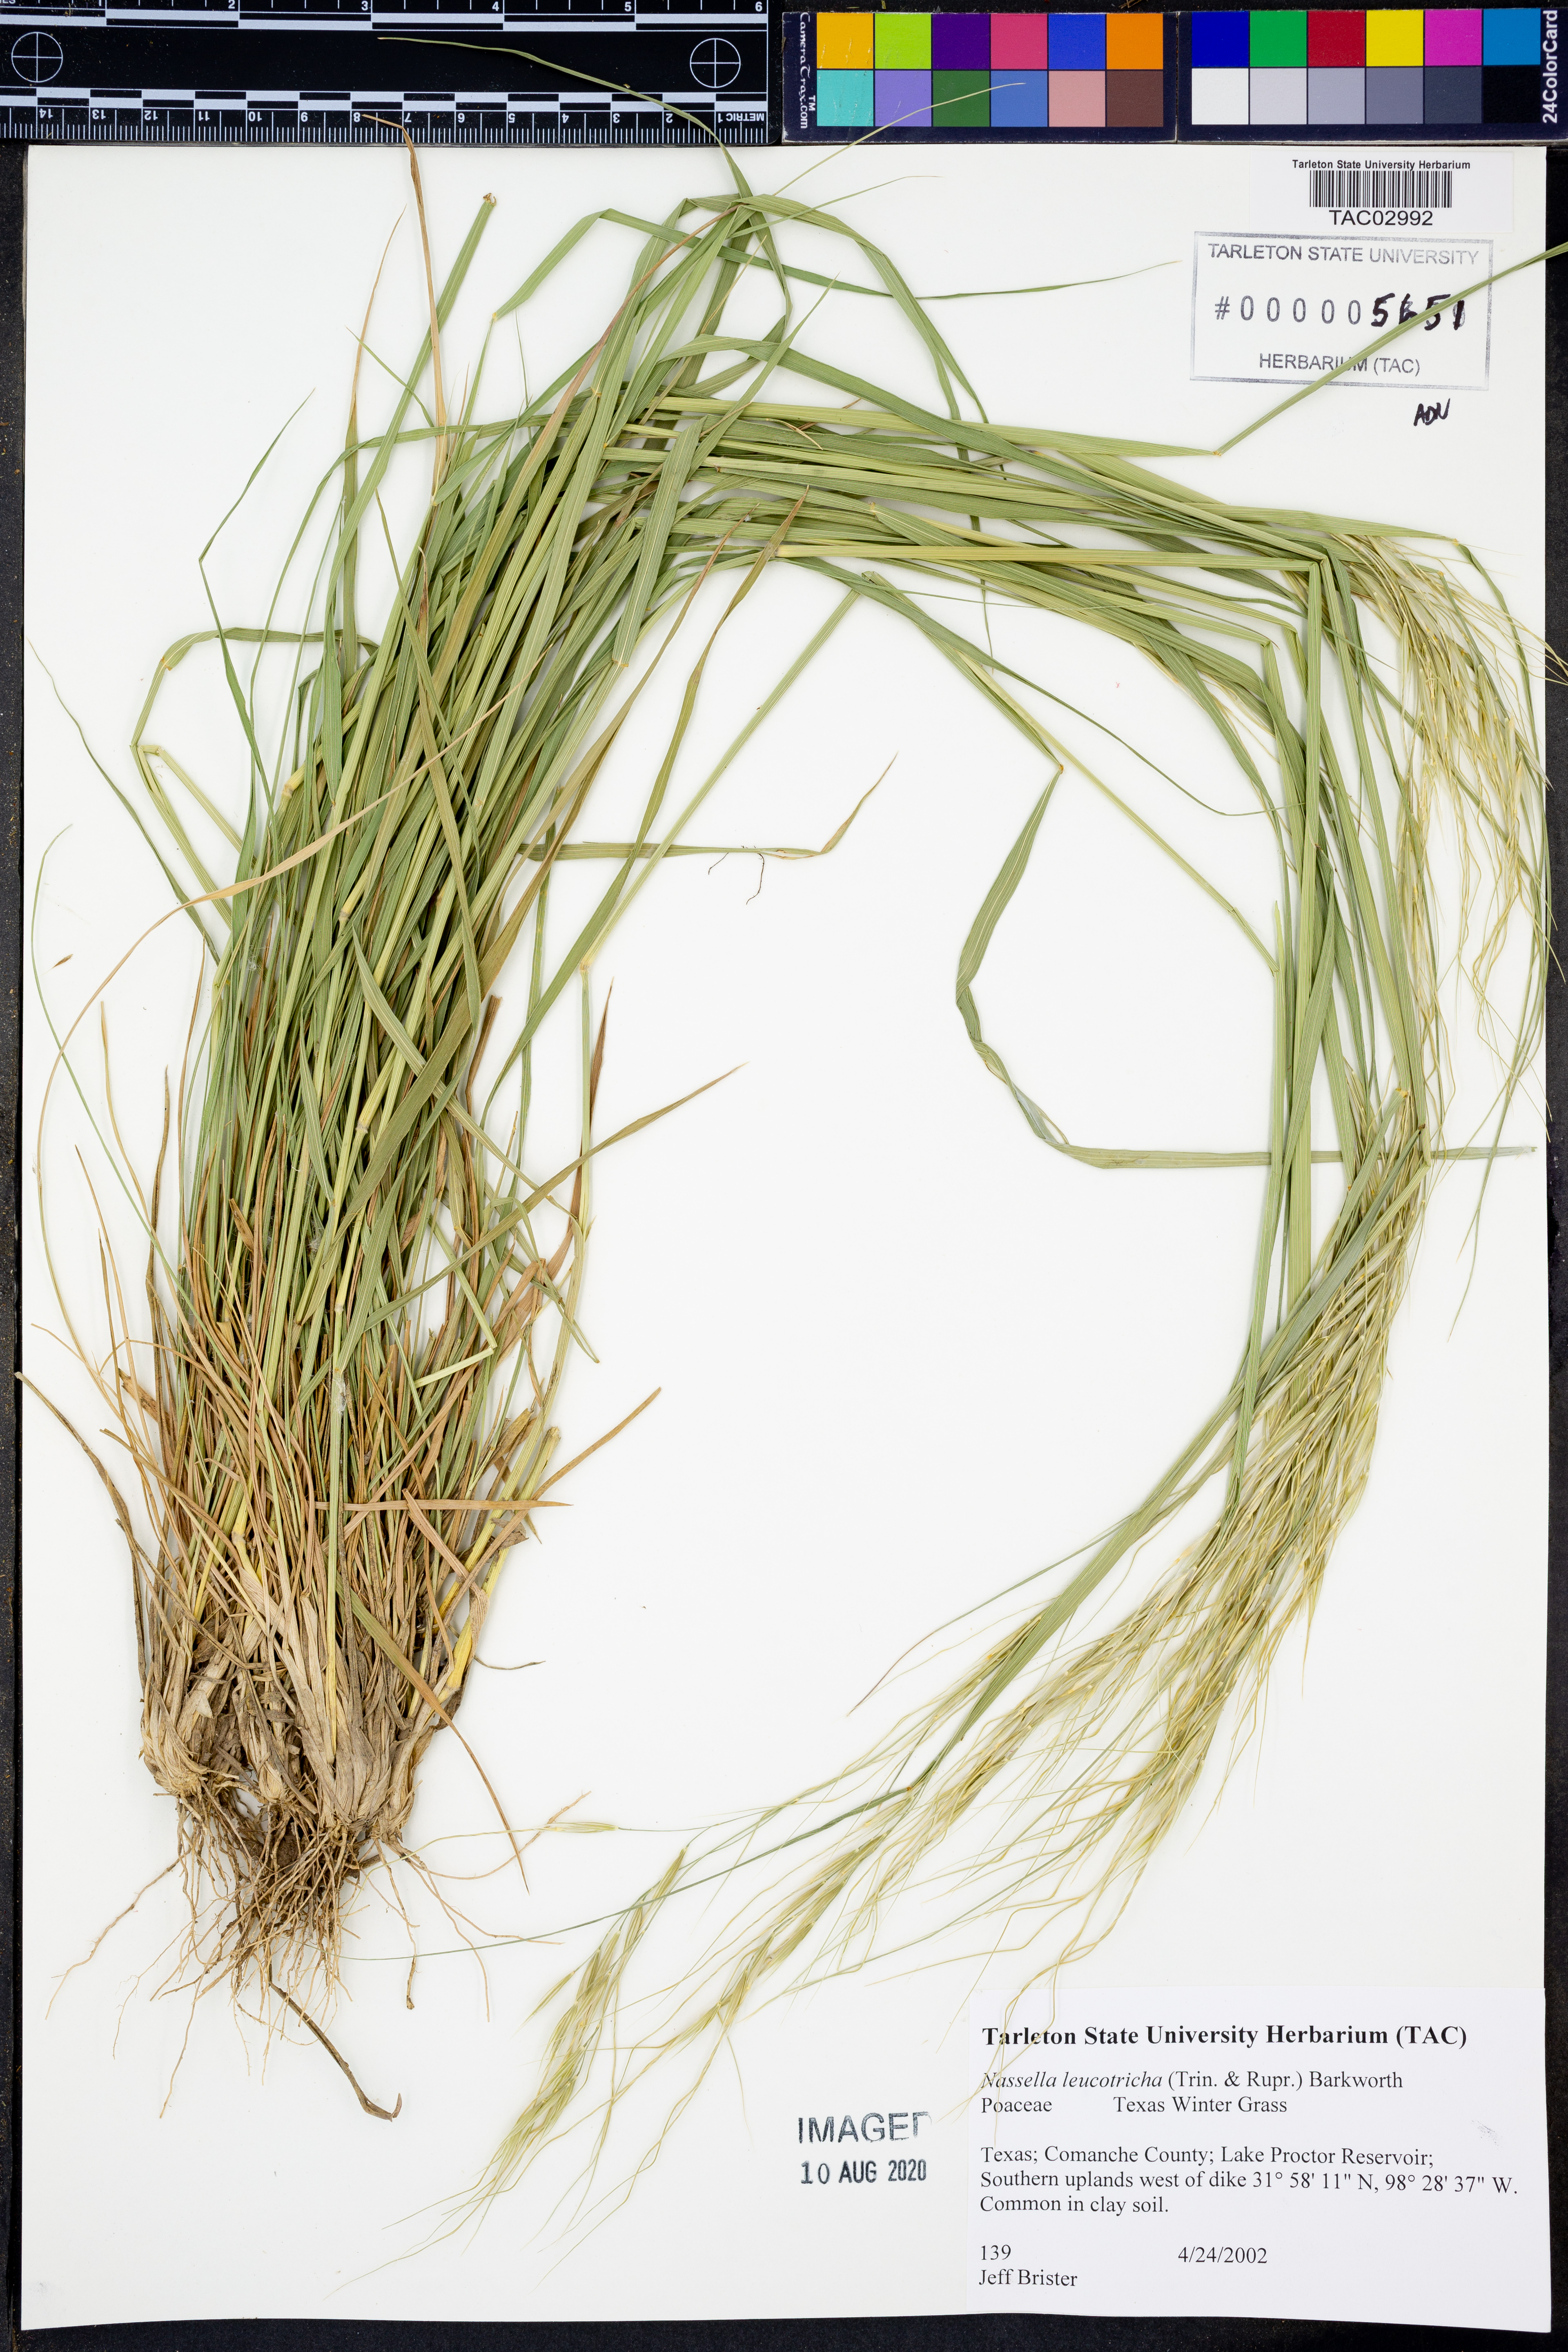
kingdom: Plantae
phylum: Tracheophyta
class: Liliopsida
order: Poales
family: Poaceae
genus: Nassella
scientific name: Nassella leucotricha
